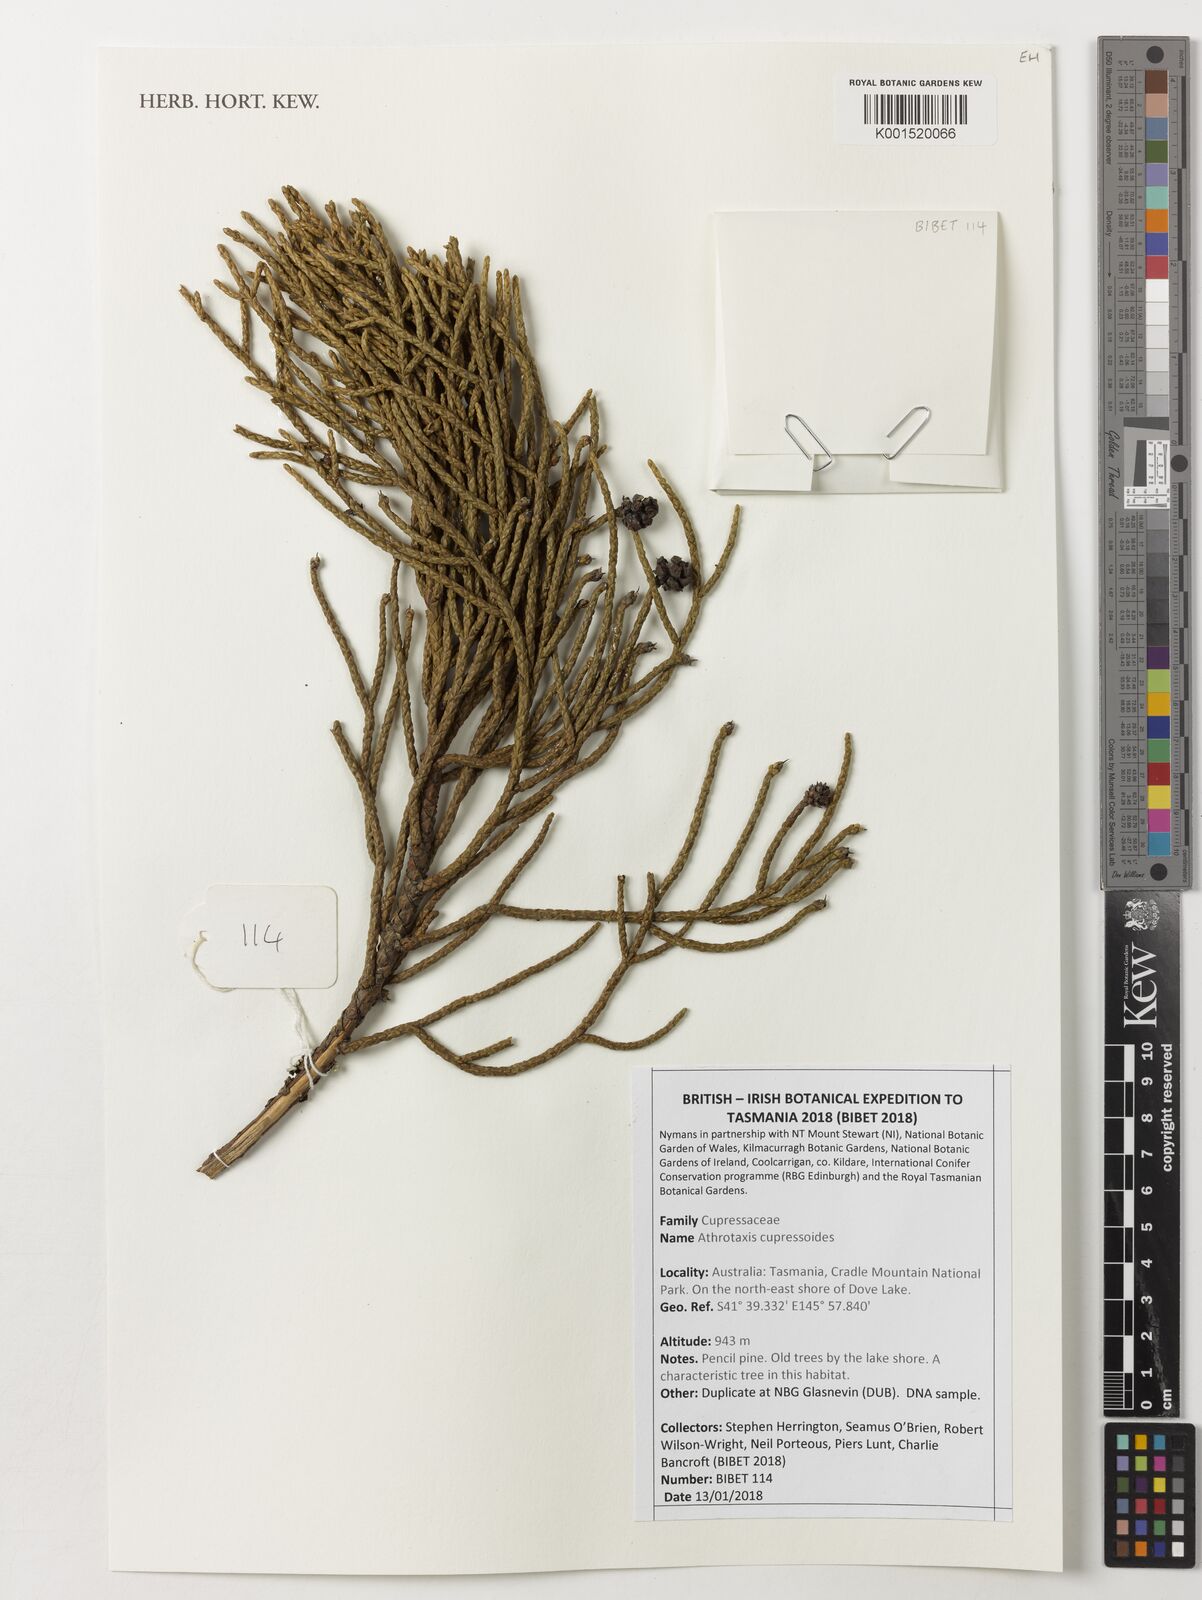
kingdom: Plantae
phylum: Tracheophyta
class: Pinopsida
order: Pinales
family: Cupressaceae
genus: Athrotaxis
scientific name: Athrotaxis cupressoides
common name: Tasmanian pencil pine
